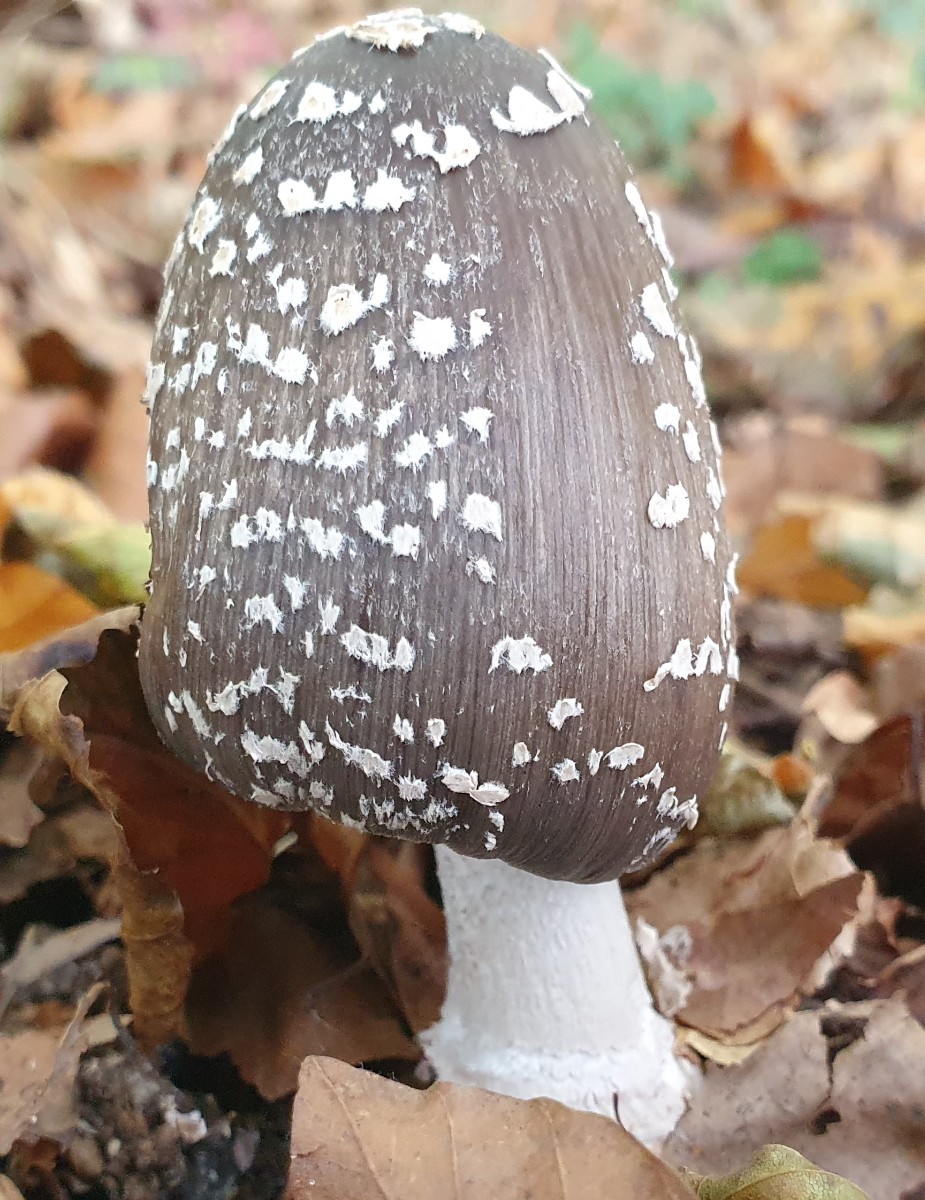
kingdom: Fungi
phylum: Basidiomycota
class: Agaricomycetes
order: Agaricales
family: Psathyrellaceae
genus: Coprinopsis
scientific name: Coprinopsis picacea
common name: skade-blækhat
